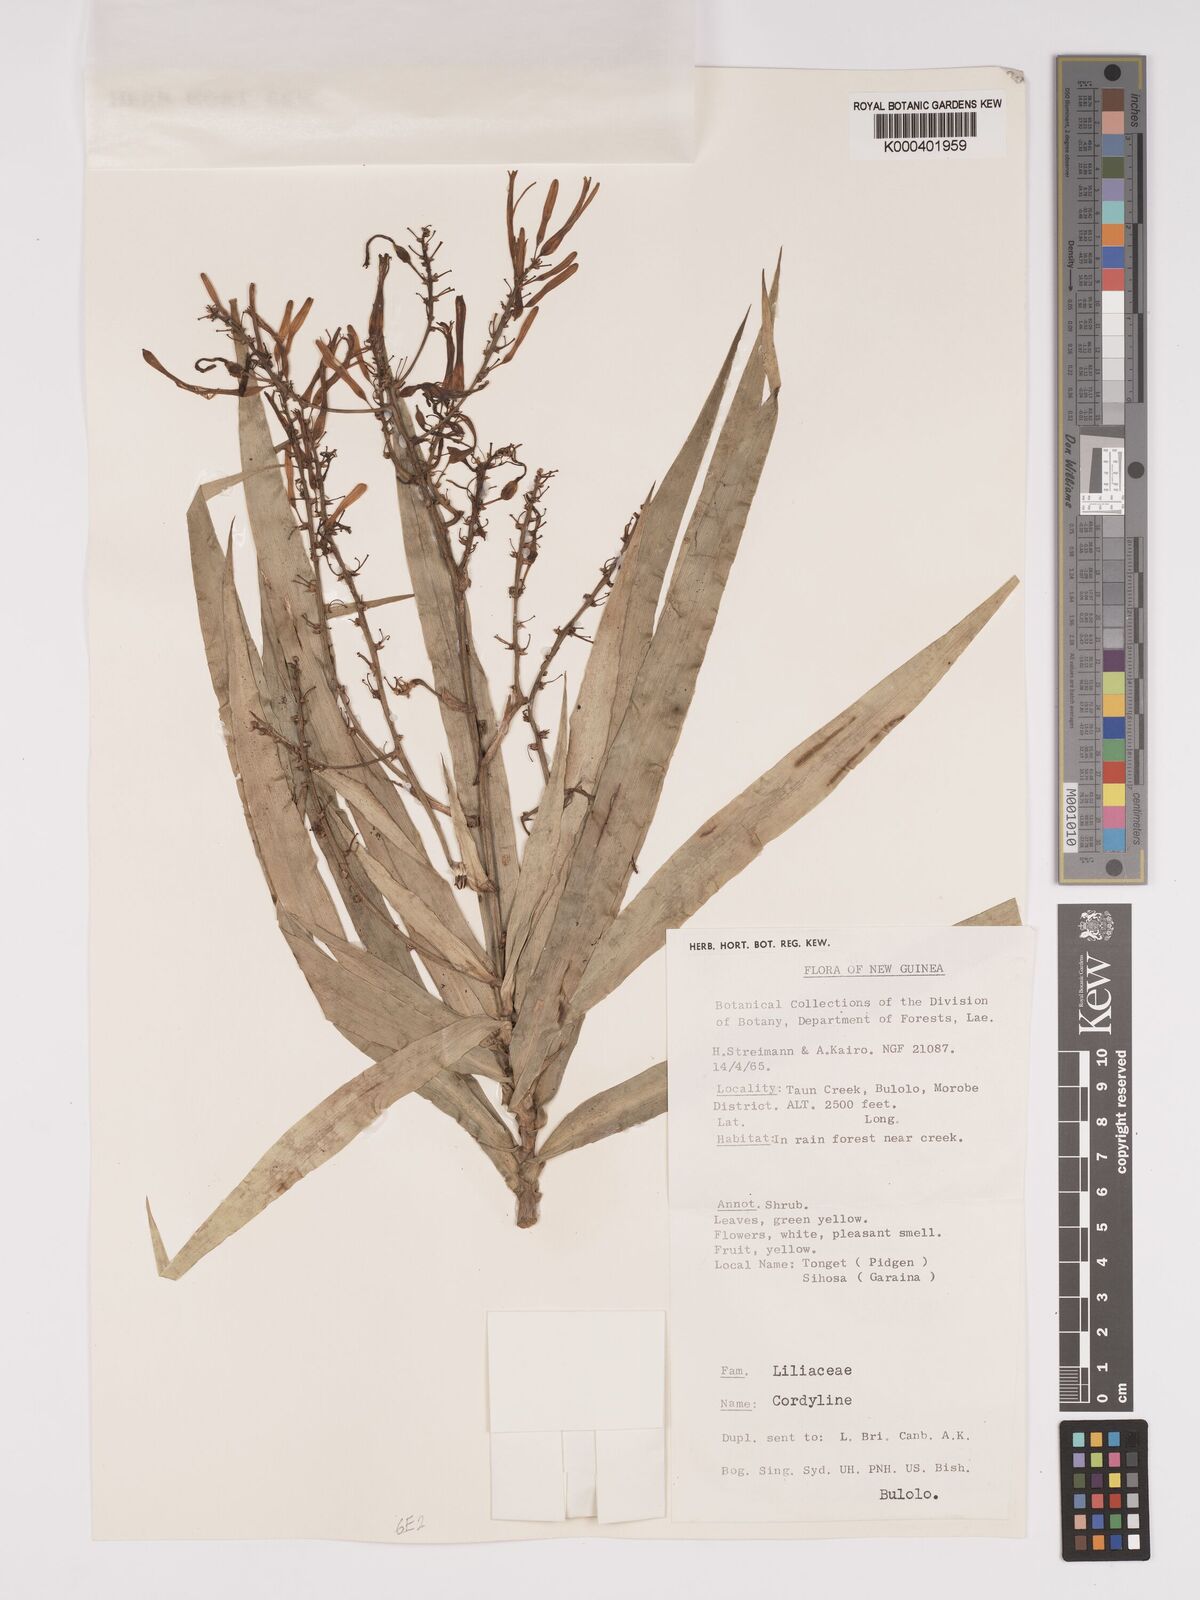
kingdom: Plantae
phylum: Tracheophyta
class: Liliopsida
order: Asparagales
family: Asparagaceae
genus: Dracaena
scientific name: Dracaena angustifolia
